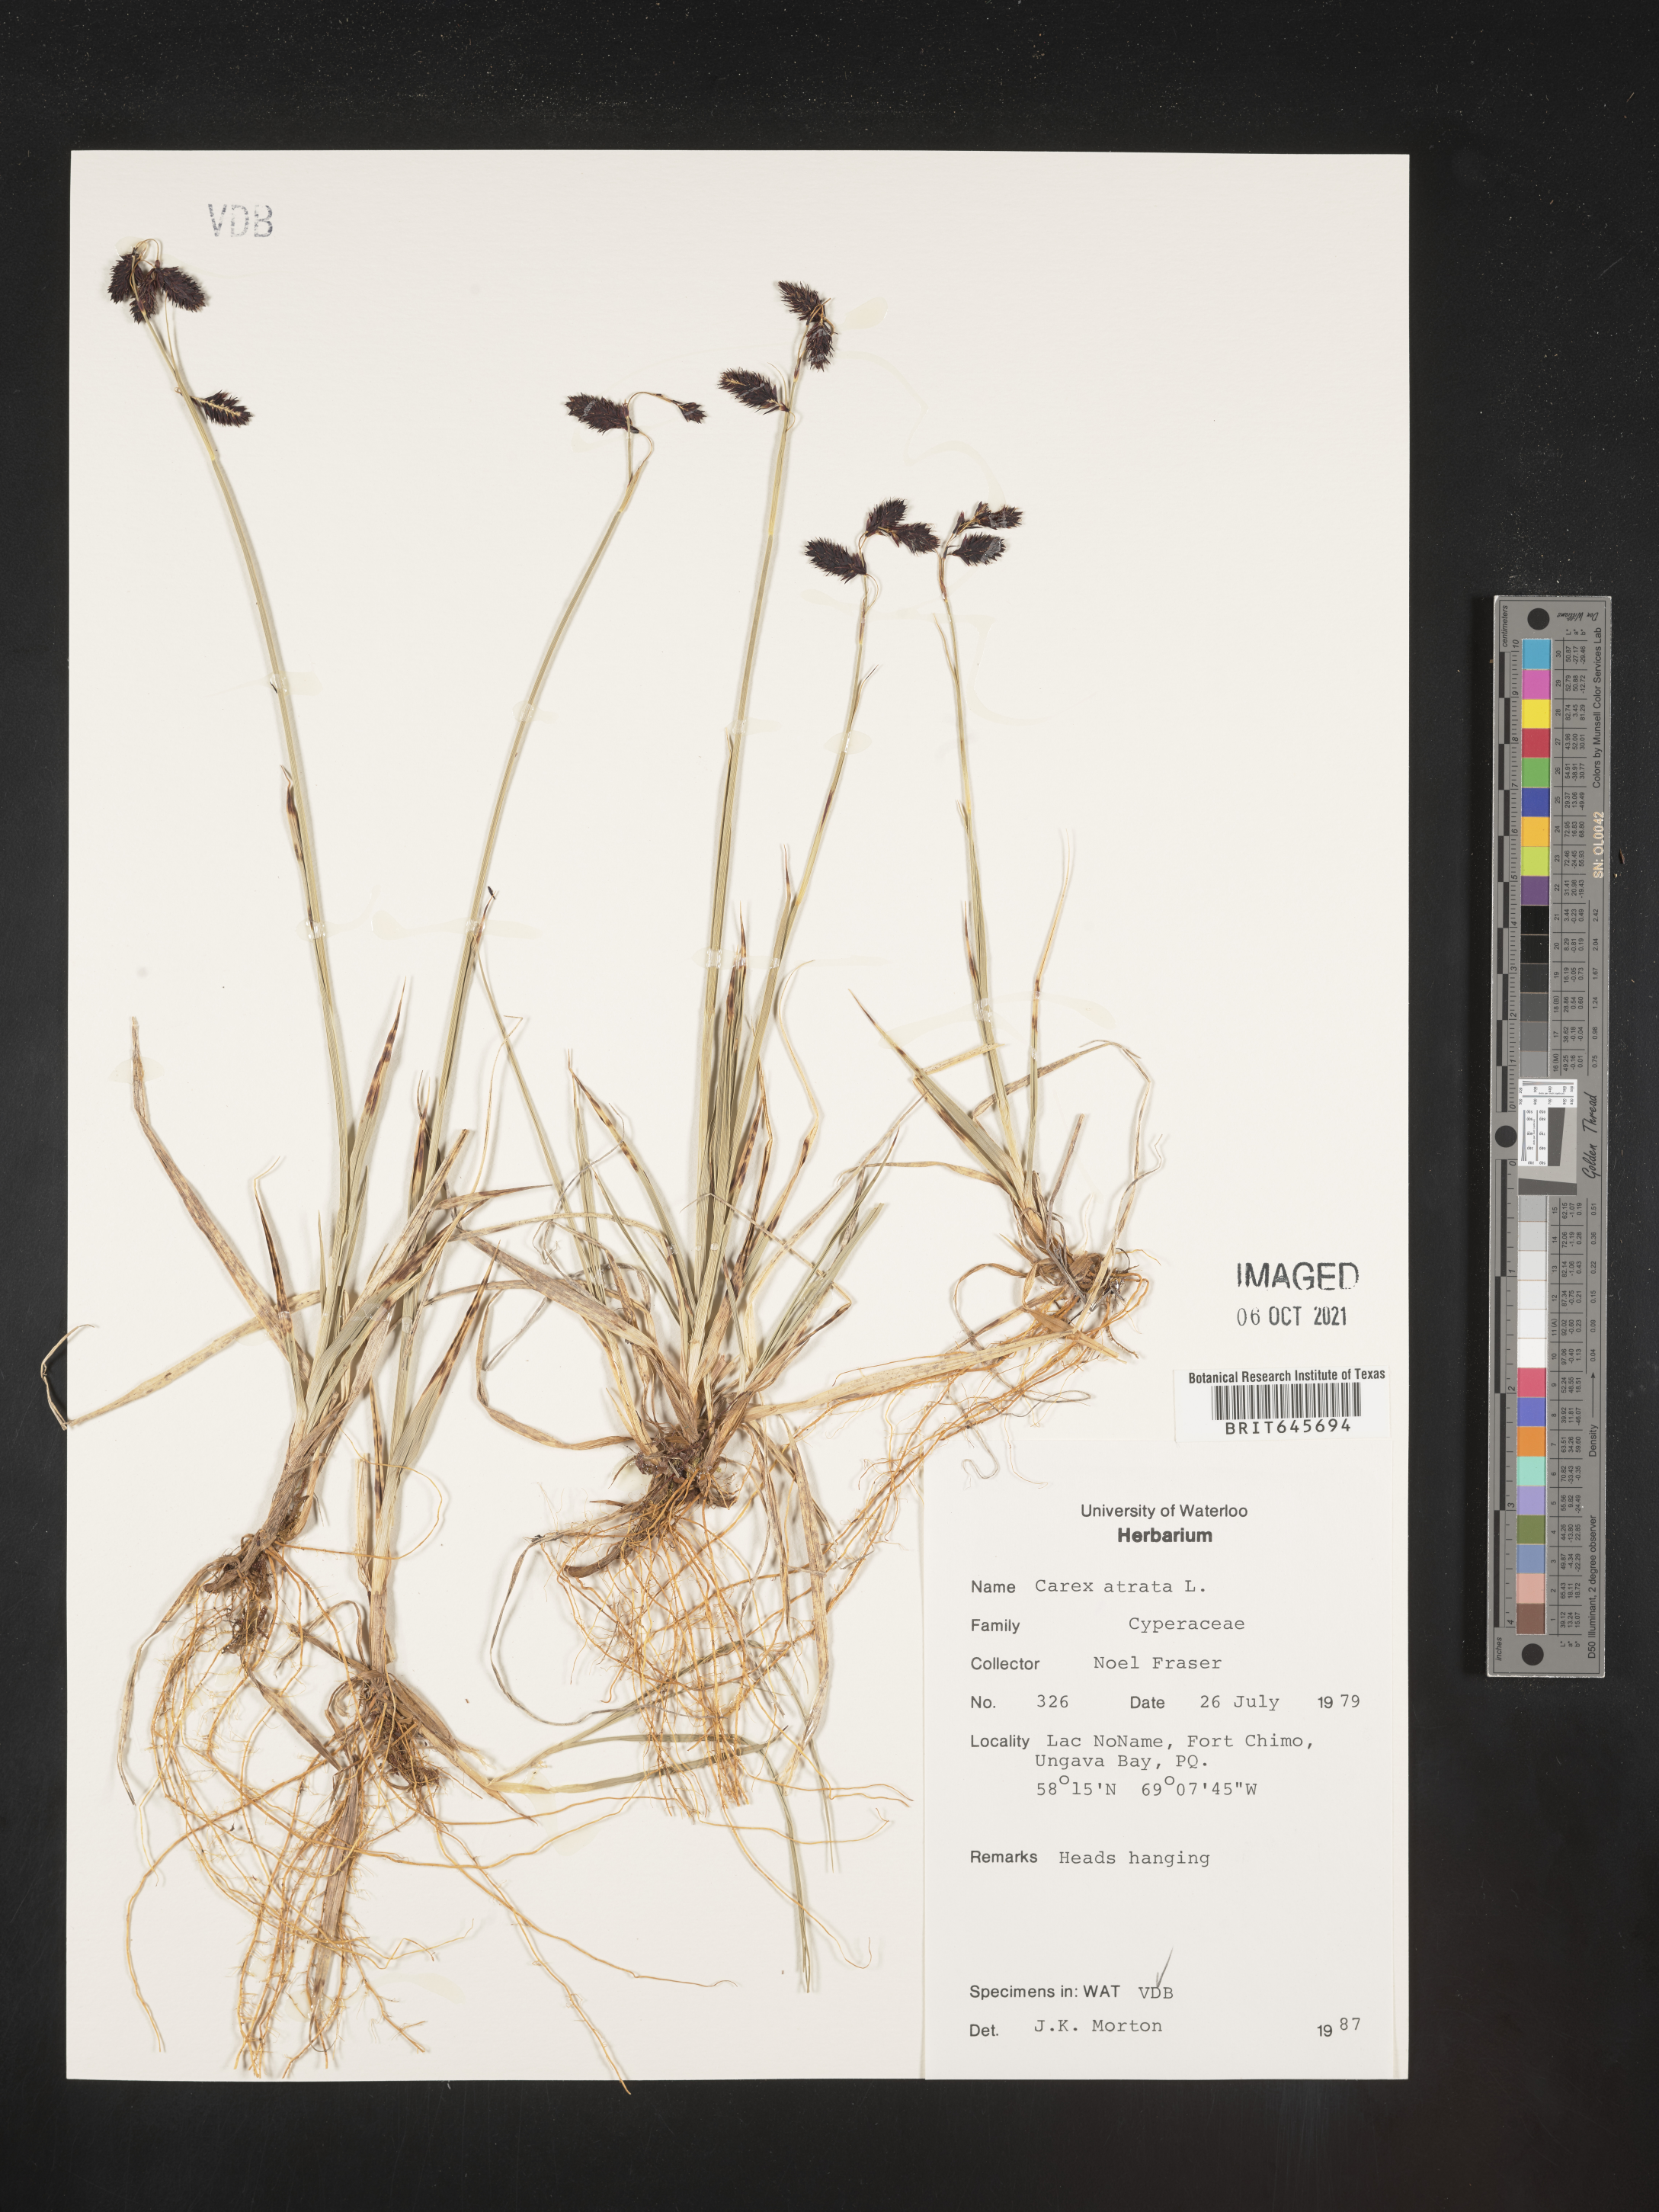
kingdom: Plantae
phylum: Tracheophyta
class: Liliopsida
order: Poales
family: Cyperaceae
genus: Carex
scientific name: Carex atrata
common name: Black alpine sedge
